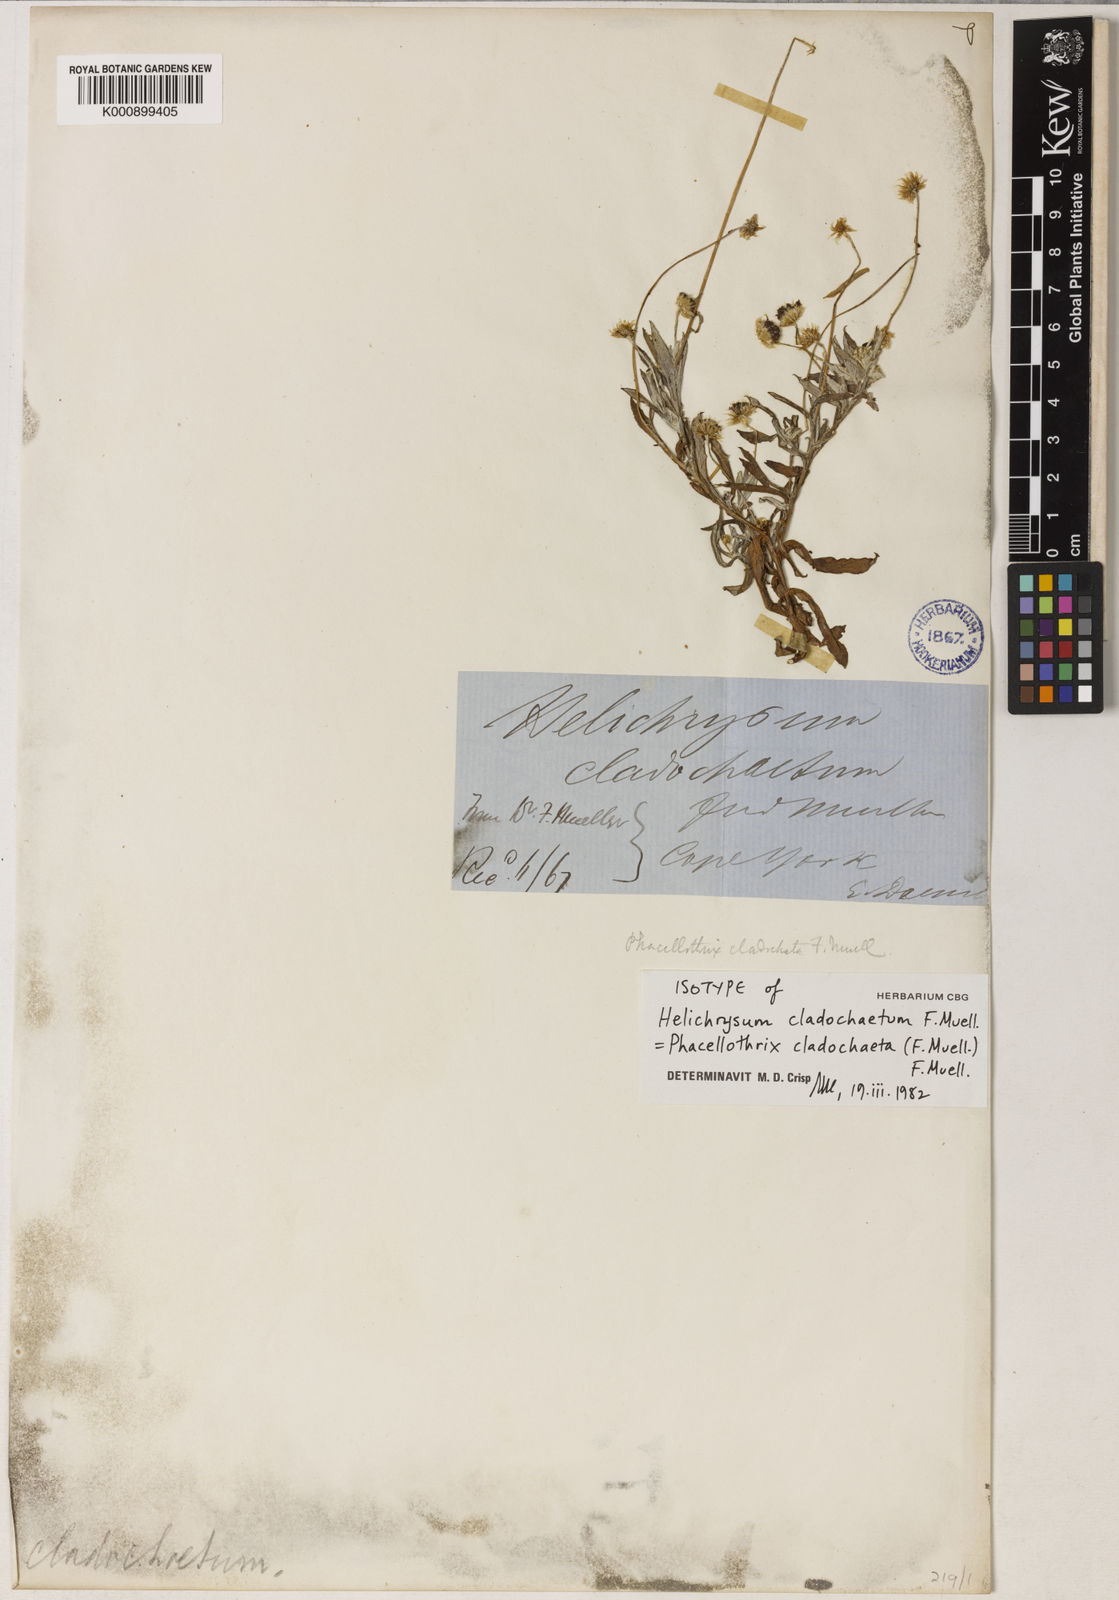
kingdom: Plantae
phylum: Tracheophyta
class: Magnoliopsida
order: Asterales
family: Asteraceae
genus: Phacellothrix
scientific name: Phacellothrix cladochaeta
